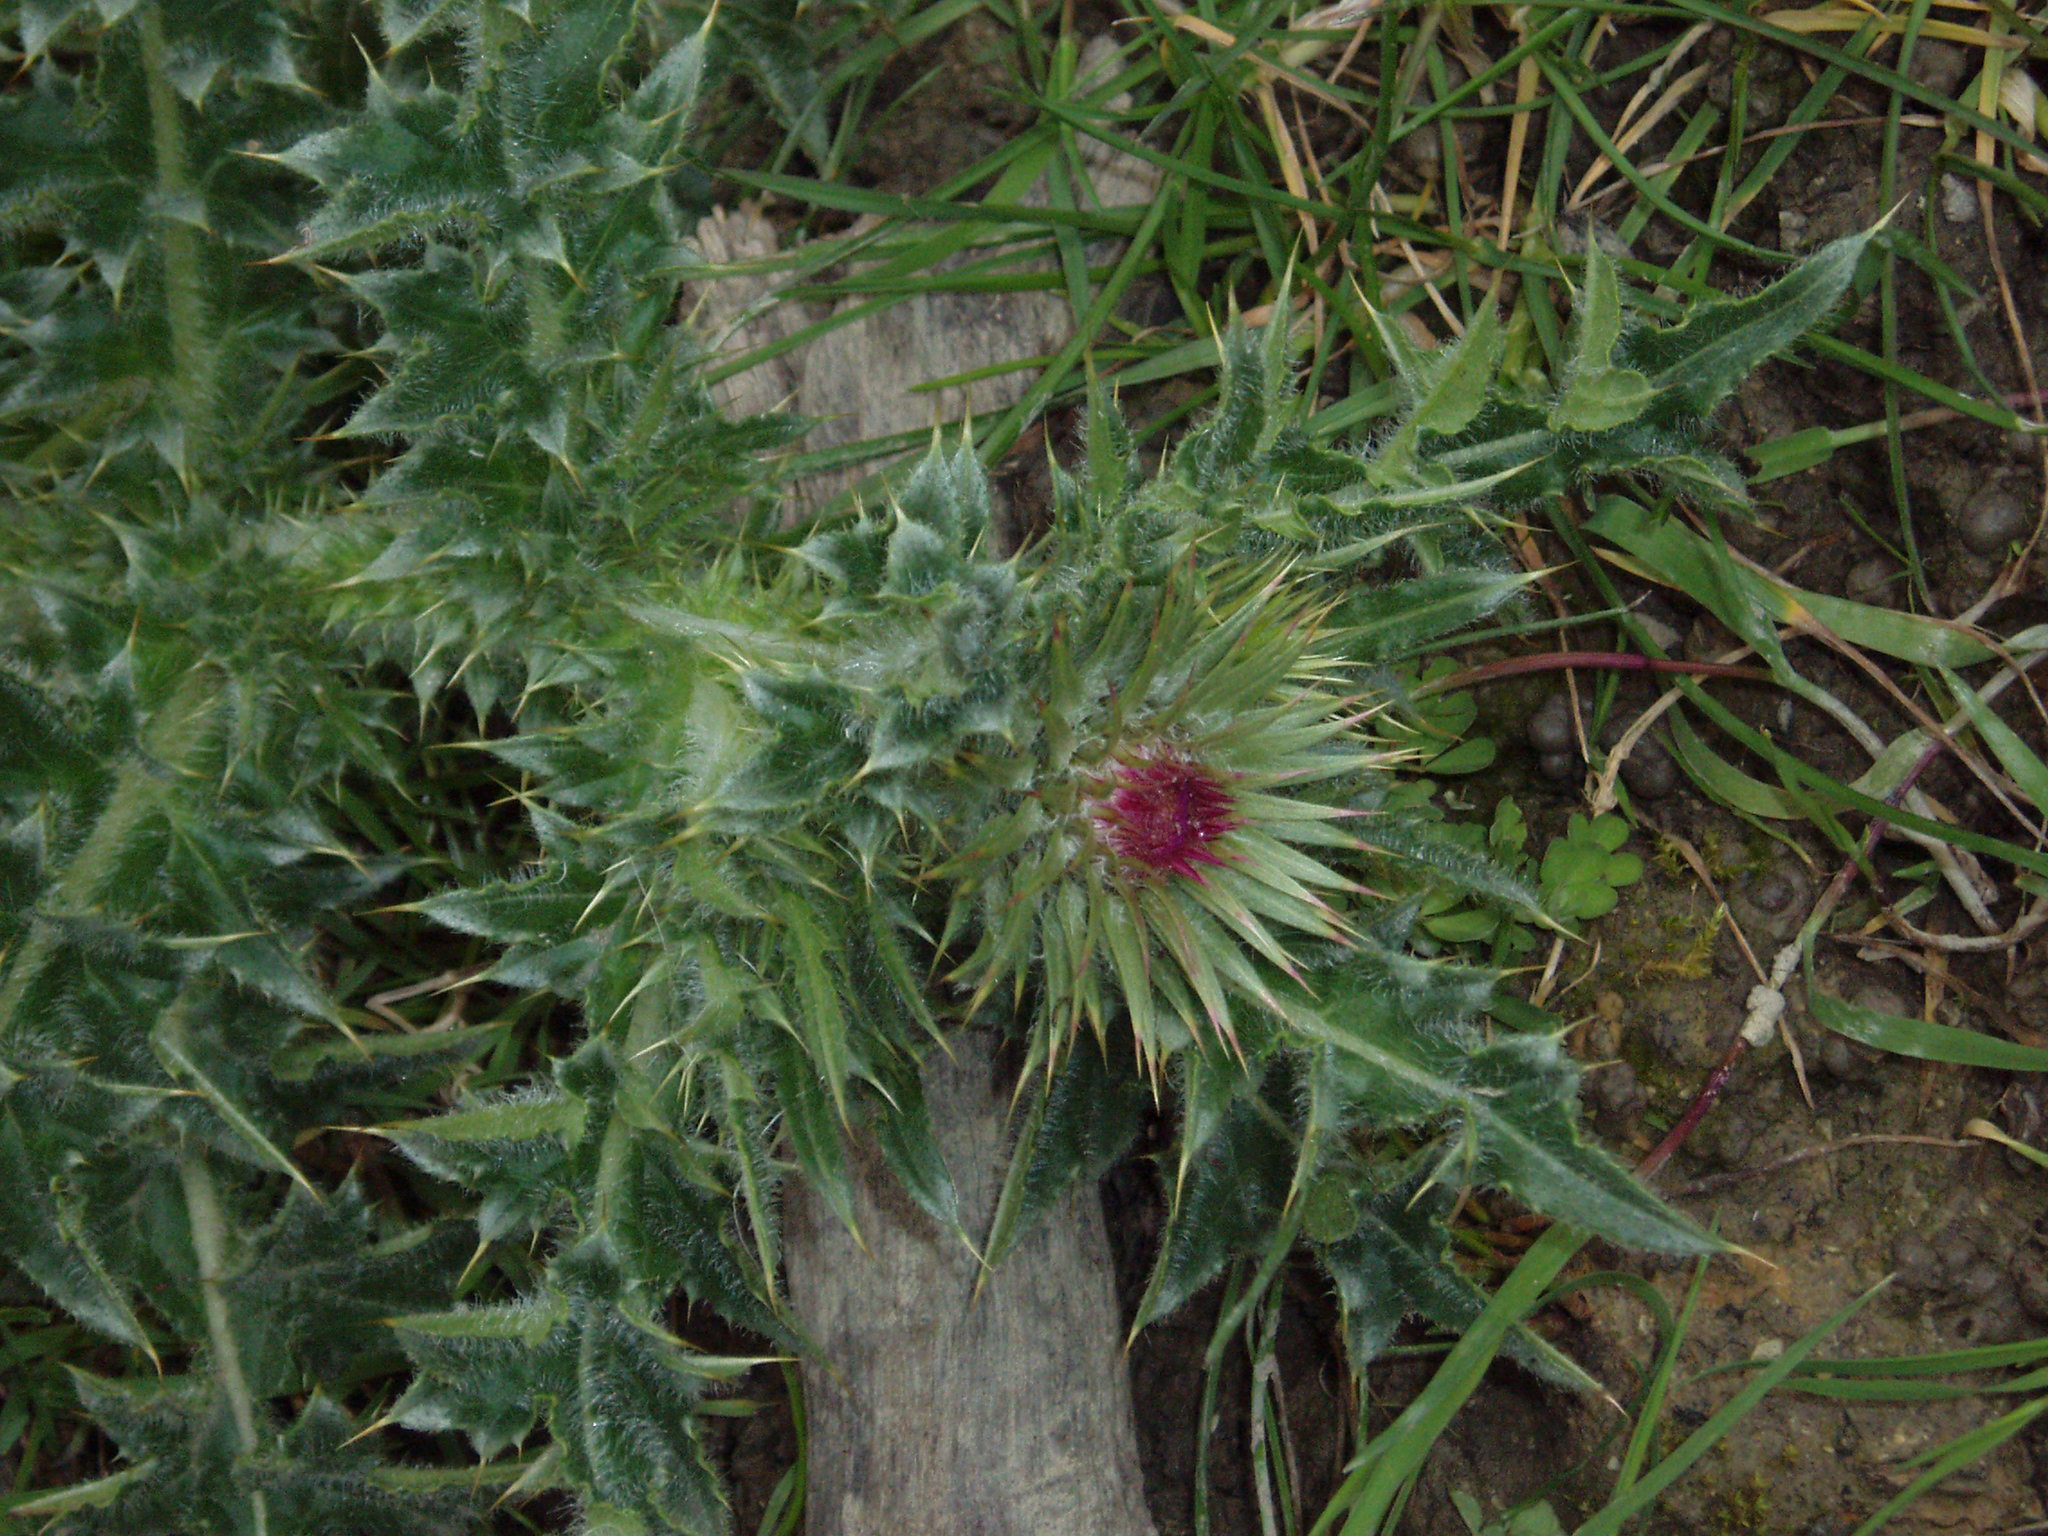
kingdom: Plantae
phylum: Tracheophyta
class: Magnoliopsida
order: Asterales
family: Asteraceae
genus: Carduus
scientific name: Carduus nutans
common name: Musk thistle
